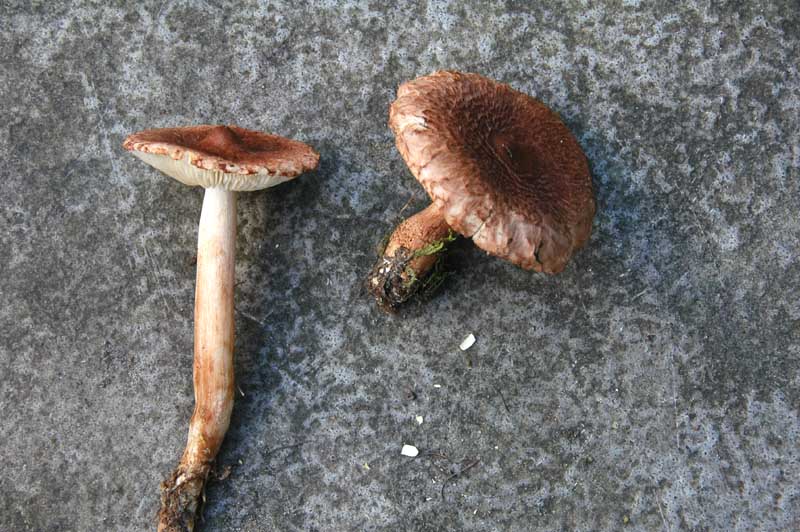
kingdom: Fungi
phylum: Basidiomycota
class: Agaricomycetes
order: Agaricales
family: Tricholomataceae
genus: Tricholoma
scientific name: Tricholoma vaccinum
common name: ko-ridderhat
